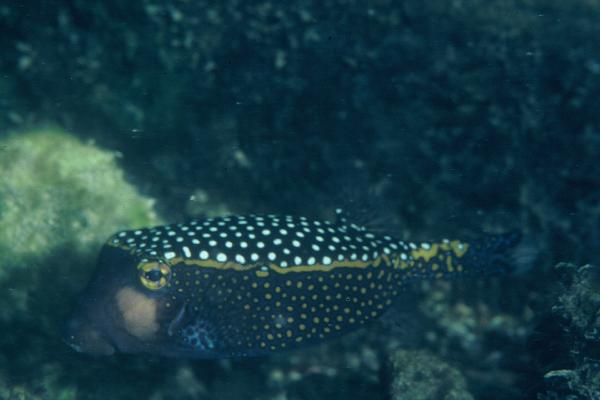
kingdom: Animalia
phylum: Chordata
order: Tetraodontiformes
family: Ostraciidae
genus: Ostracion
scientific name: Ostracion meleagris
